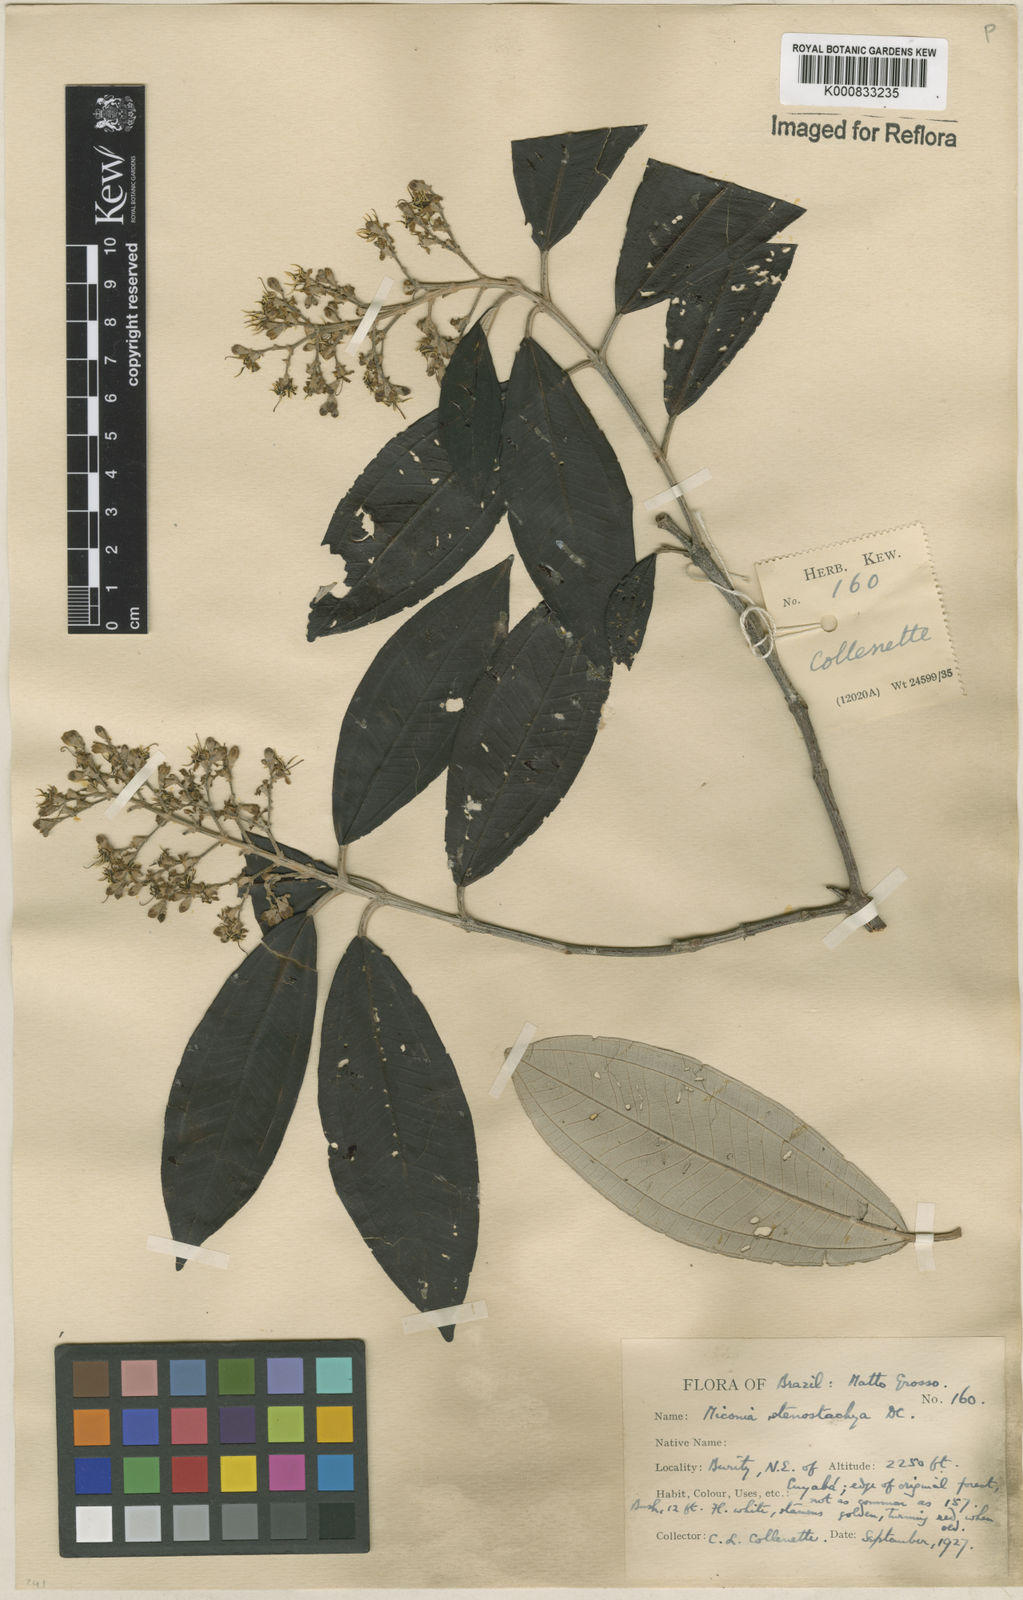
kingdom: Plantae
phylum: Tracheophyta
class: Magnoliopsida
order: Myrtales
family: Melastomataceae
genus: Miconia
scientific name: Miconia stenostachya
